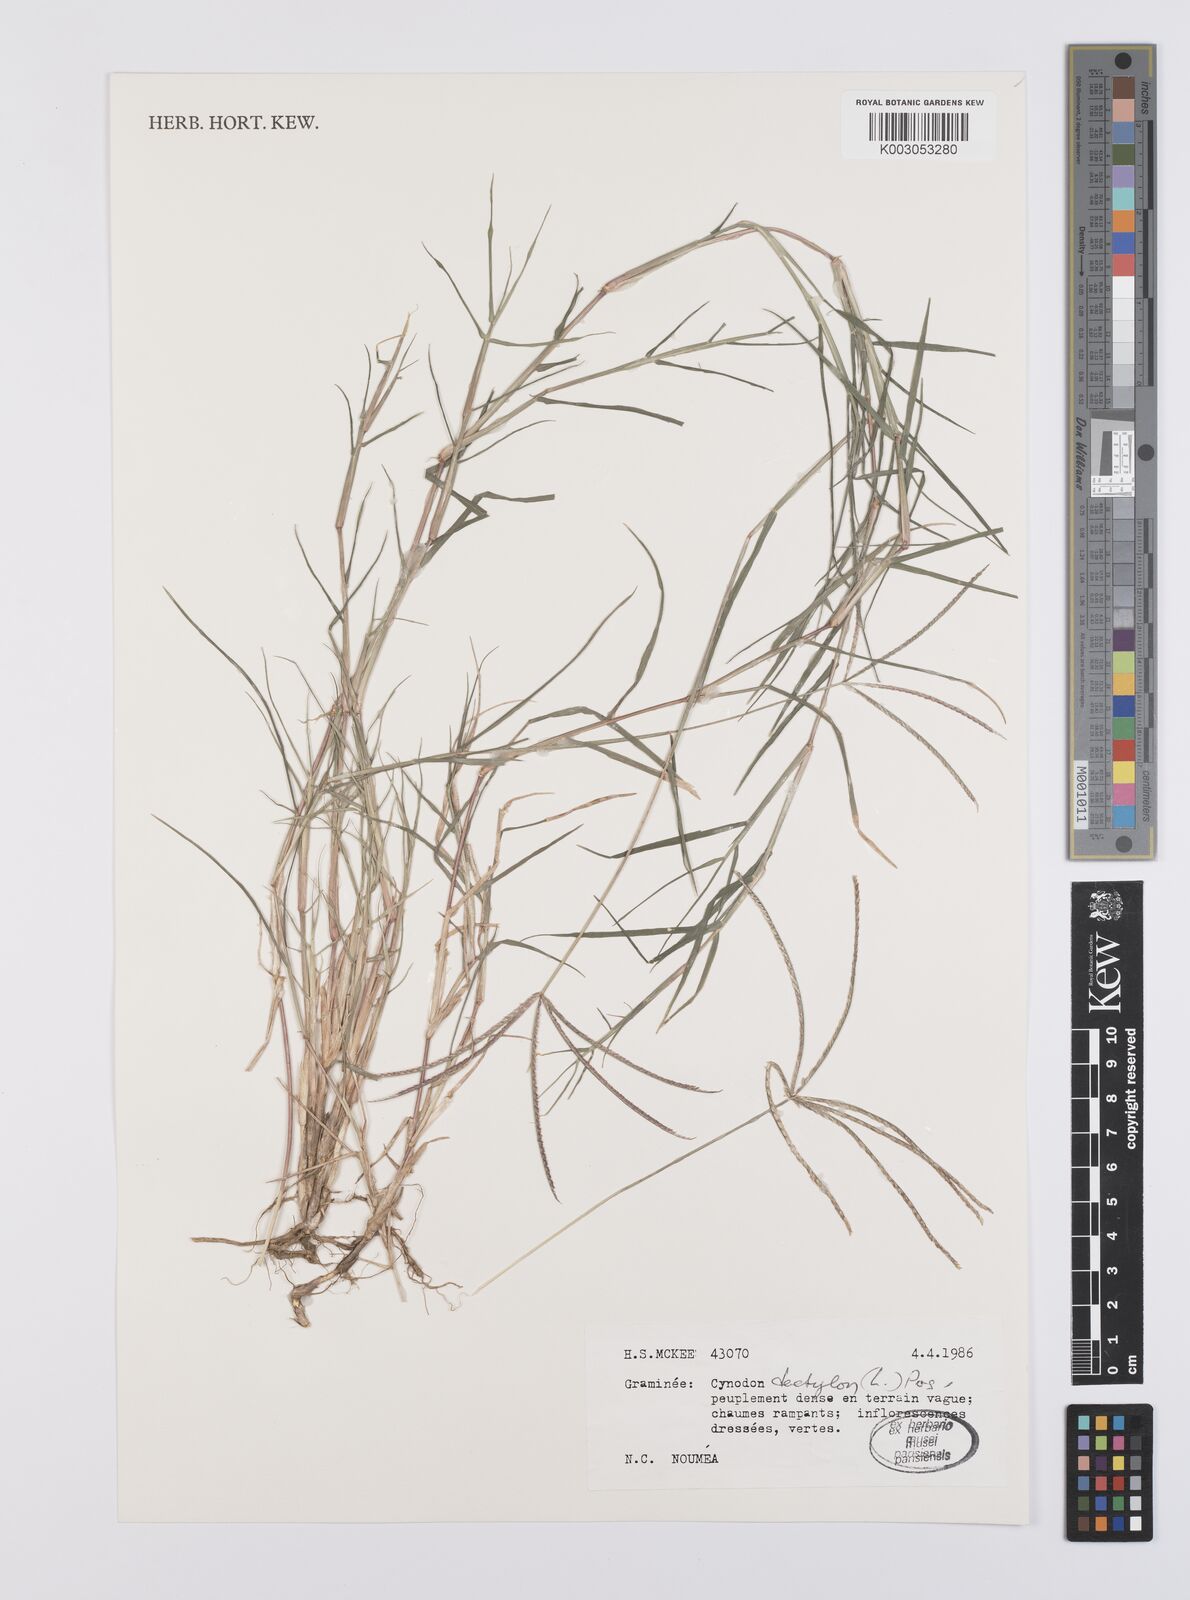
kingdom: Plantae
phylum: Tracheophyta
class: Liliopsida
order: Poales
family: Poaceae
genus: Cynodon
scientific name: Cynodon dactylon
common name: Bermuda grass
